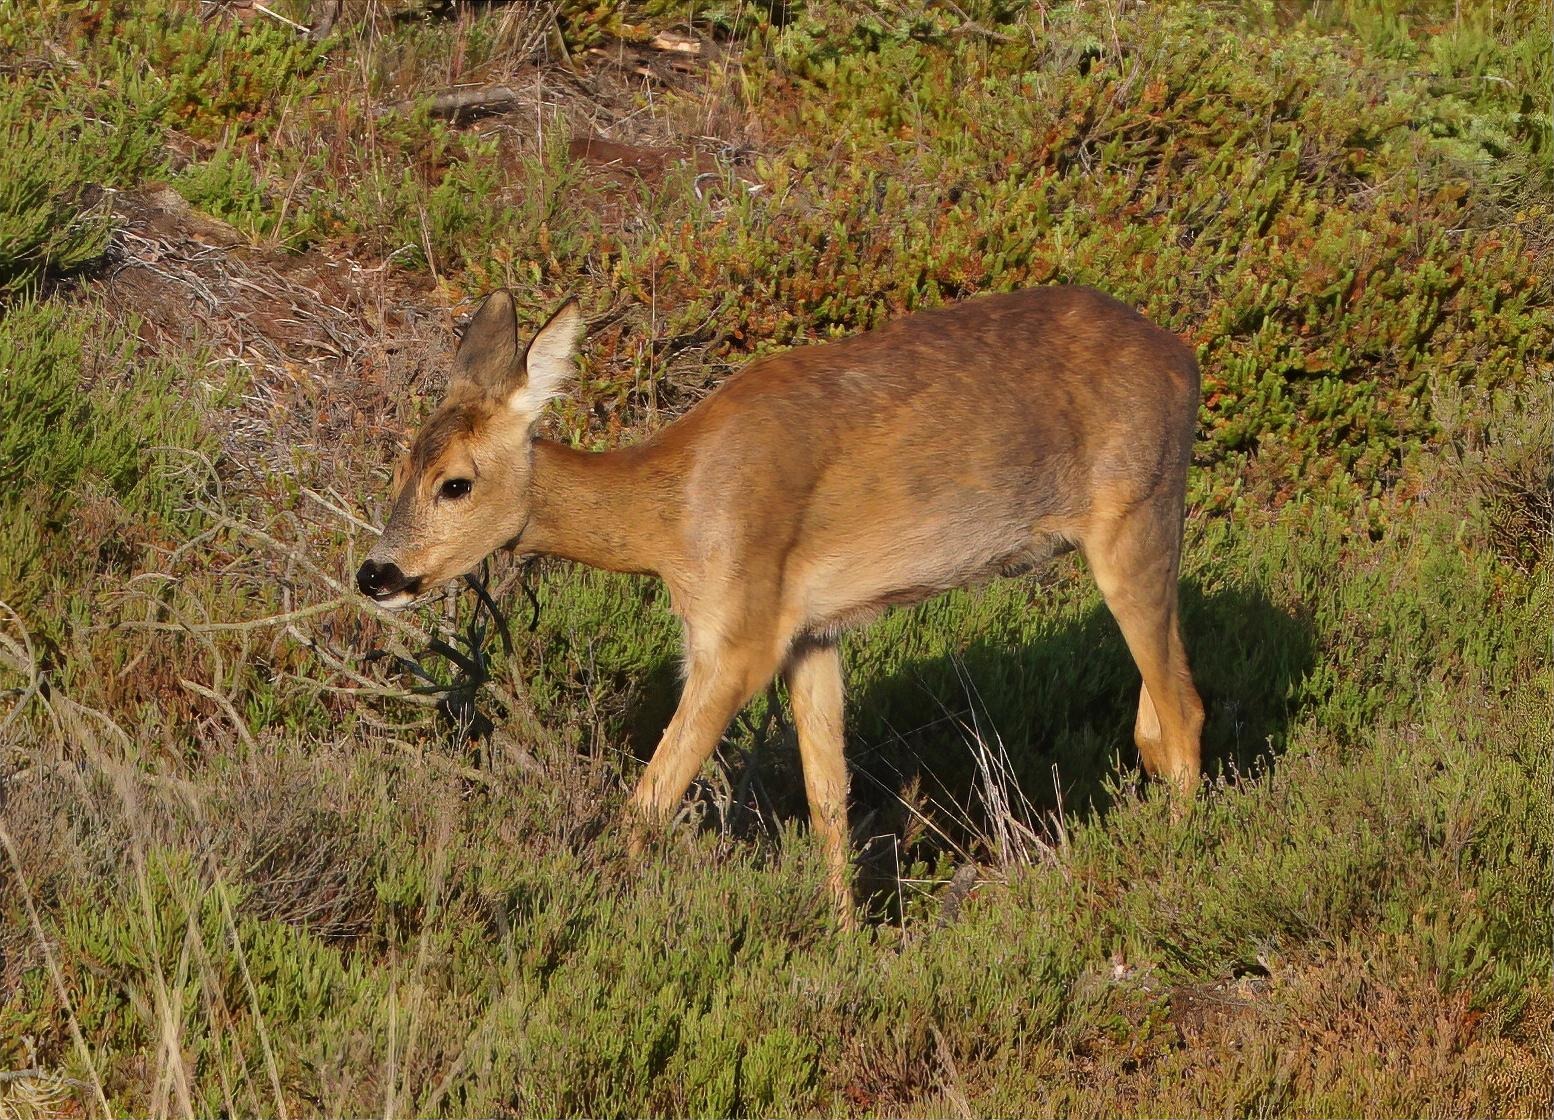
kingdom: Animalia
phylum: Chordata
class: Mammalia
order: Artiodactyla
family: Cervidae
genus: Capreolus
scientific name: Capreolus capreolus
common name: Rådyr
